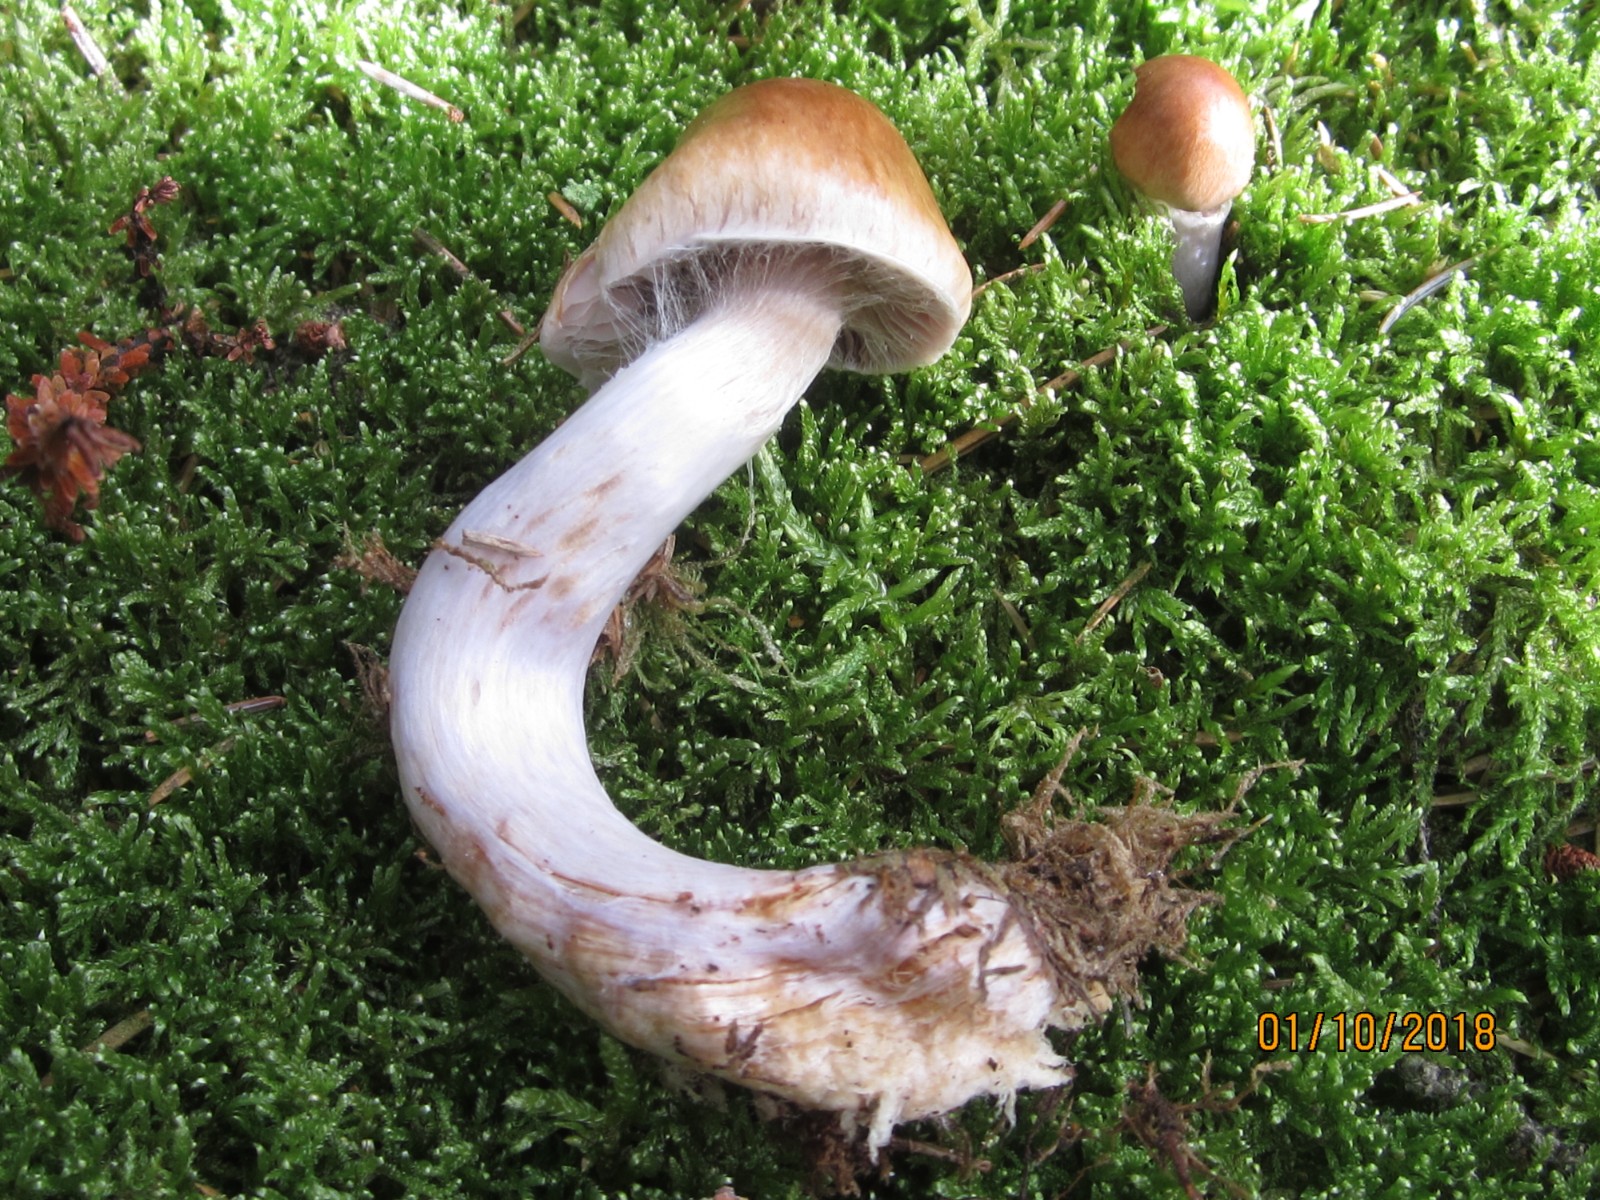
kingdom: Fungi
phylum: Basidiomycota
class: Agaricomycetes
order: Agaricales
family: Cortinariaceae
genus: Cortinarius
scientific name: Cortinarius elatior
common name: høj slørhat
